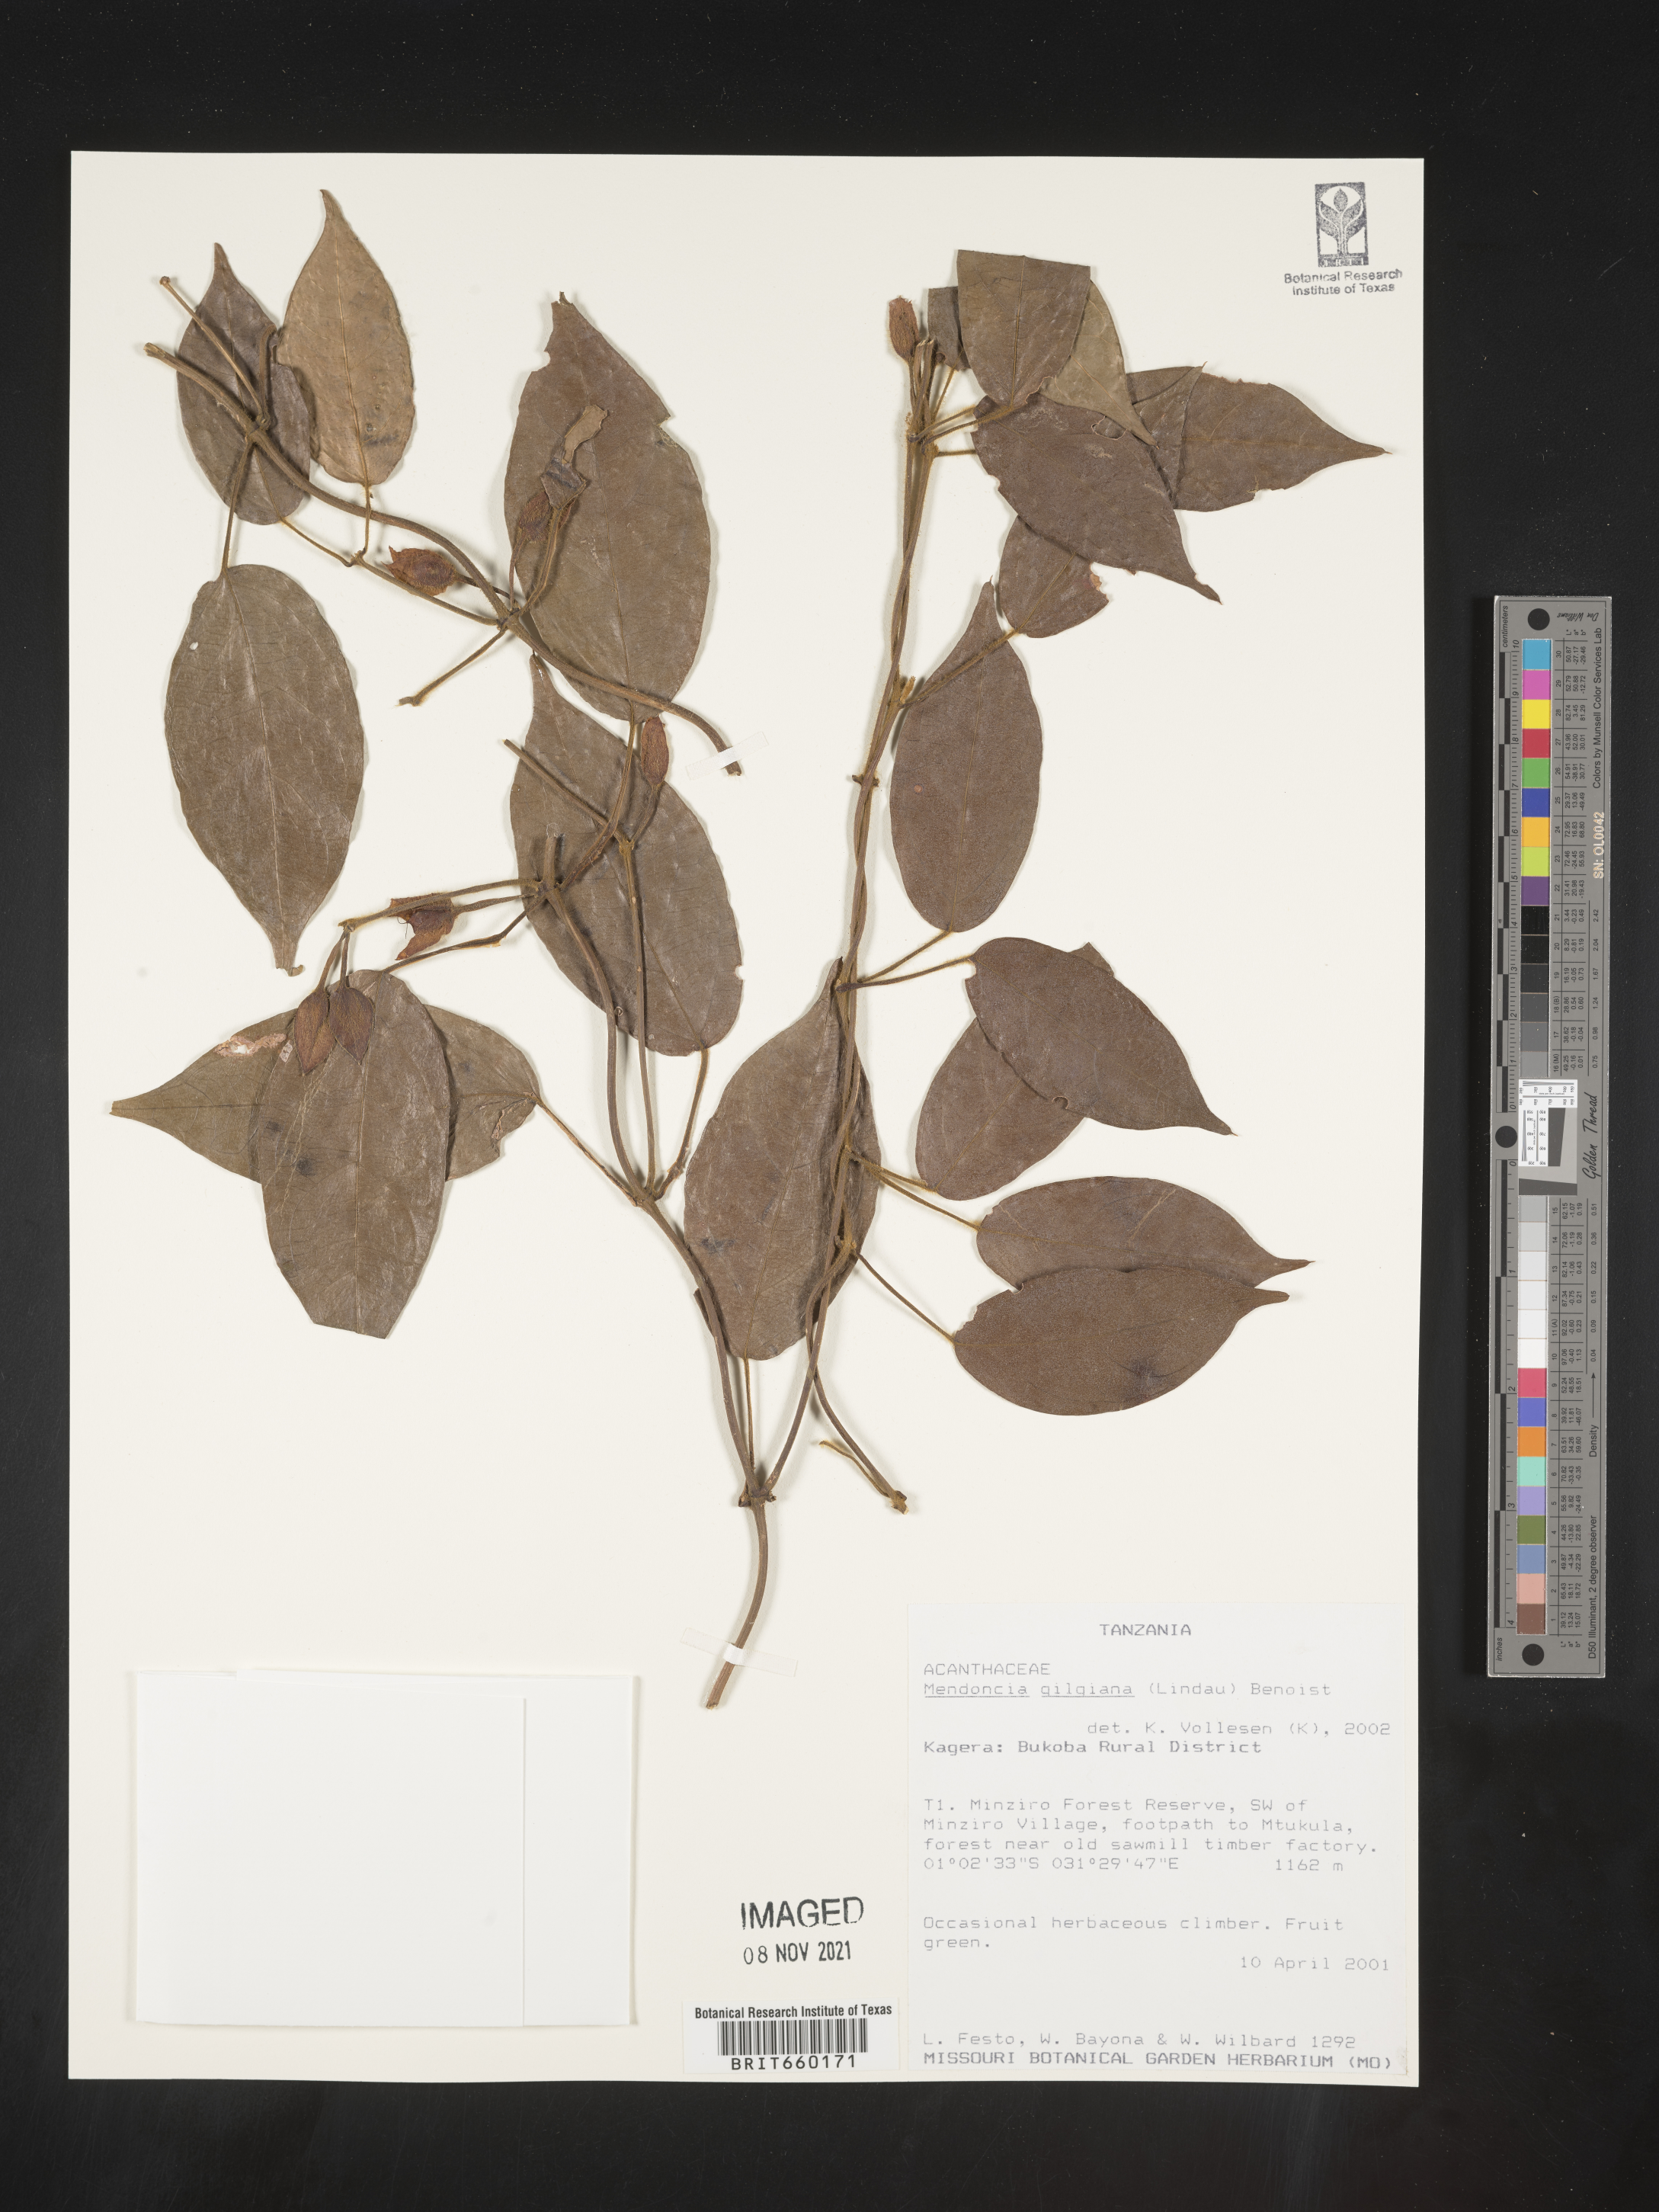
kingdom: Plantae
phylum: Tracheophyta
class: Magnoliopsida
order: Lamiales
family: Acanthaceae
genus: Mendoncia
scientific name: Mendoncia
